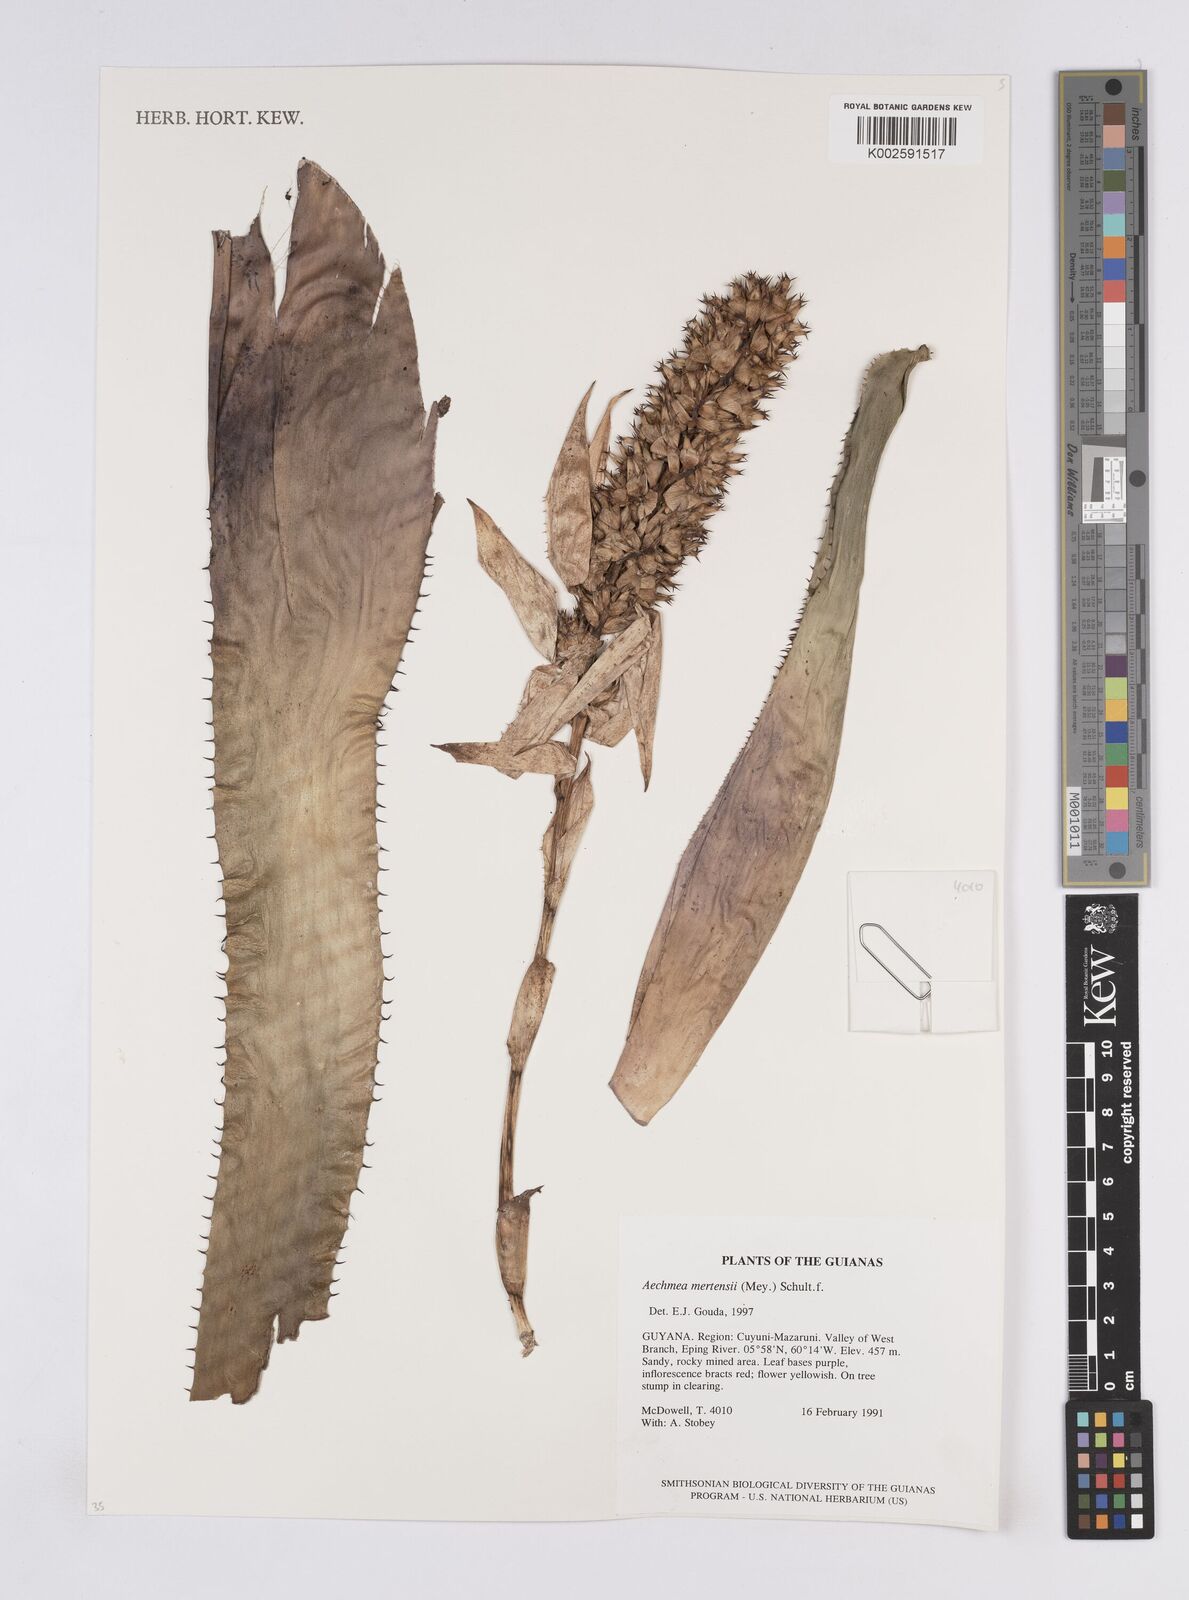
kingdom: Plantae
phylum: Tracheophyta
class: Liliopsida
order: Poales
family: Bromeliaceae
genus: Aechmea
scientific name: Aechmea mertensii
